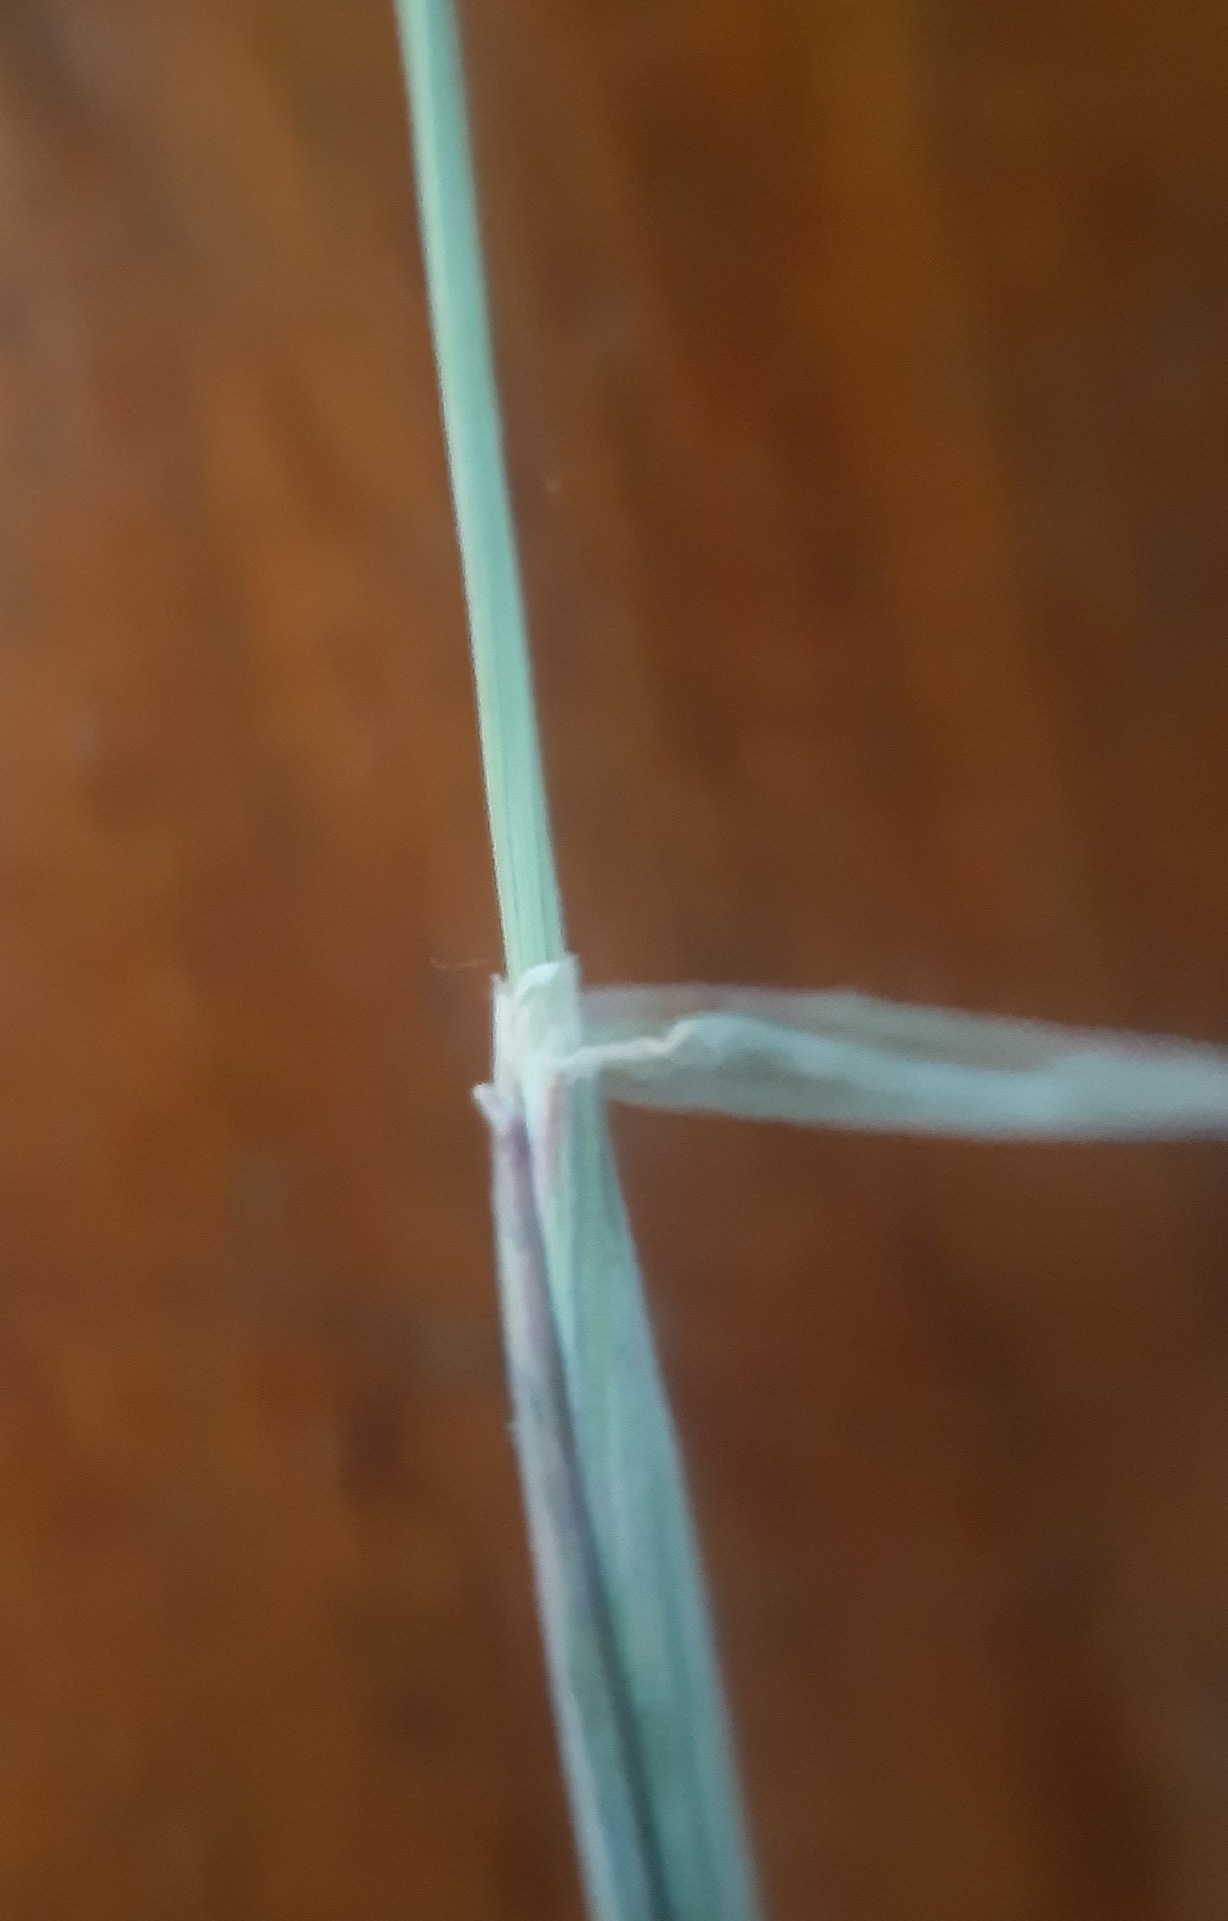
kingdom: Plantae
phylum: Tracheophyta
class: Liliopsida
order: Poales
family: Poaceae
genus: Holcus
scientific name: Holcus lanatus
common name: Fløjlsgræs
